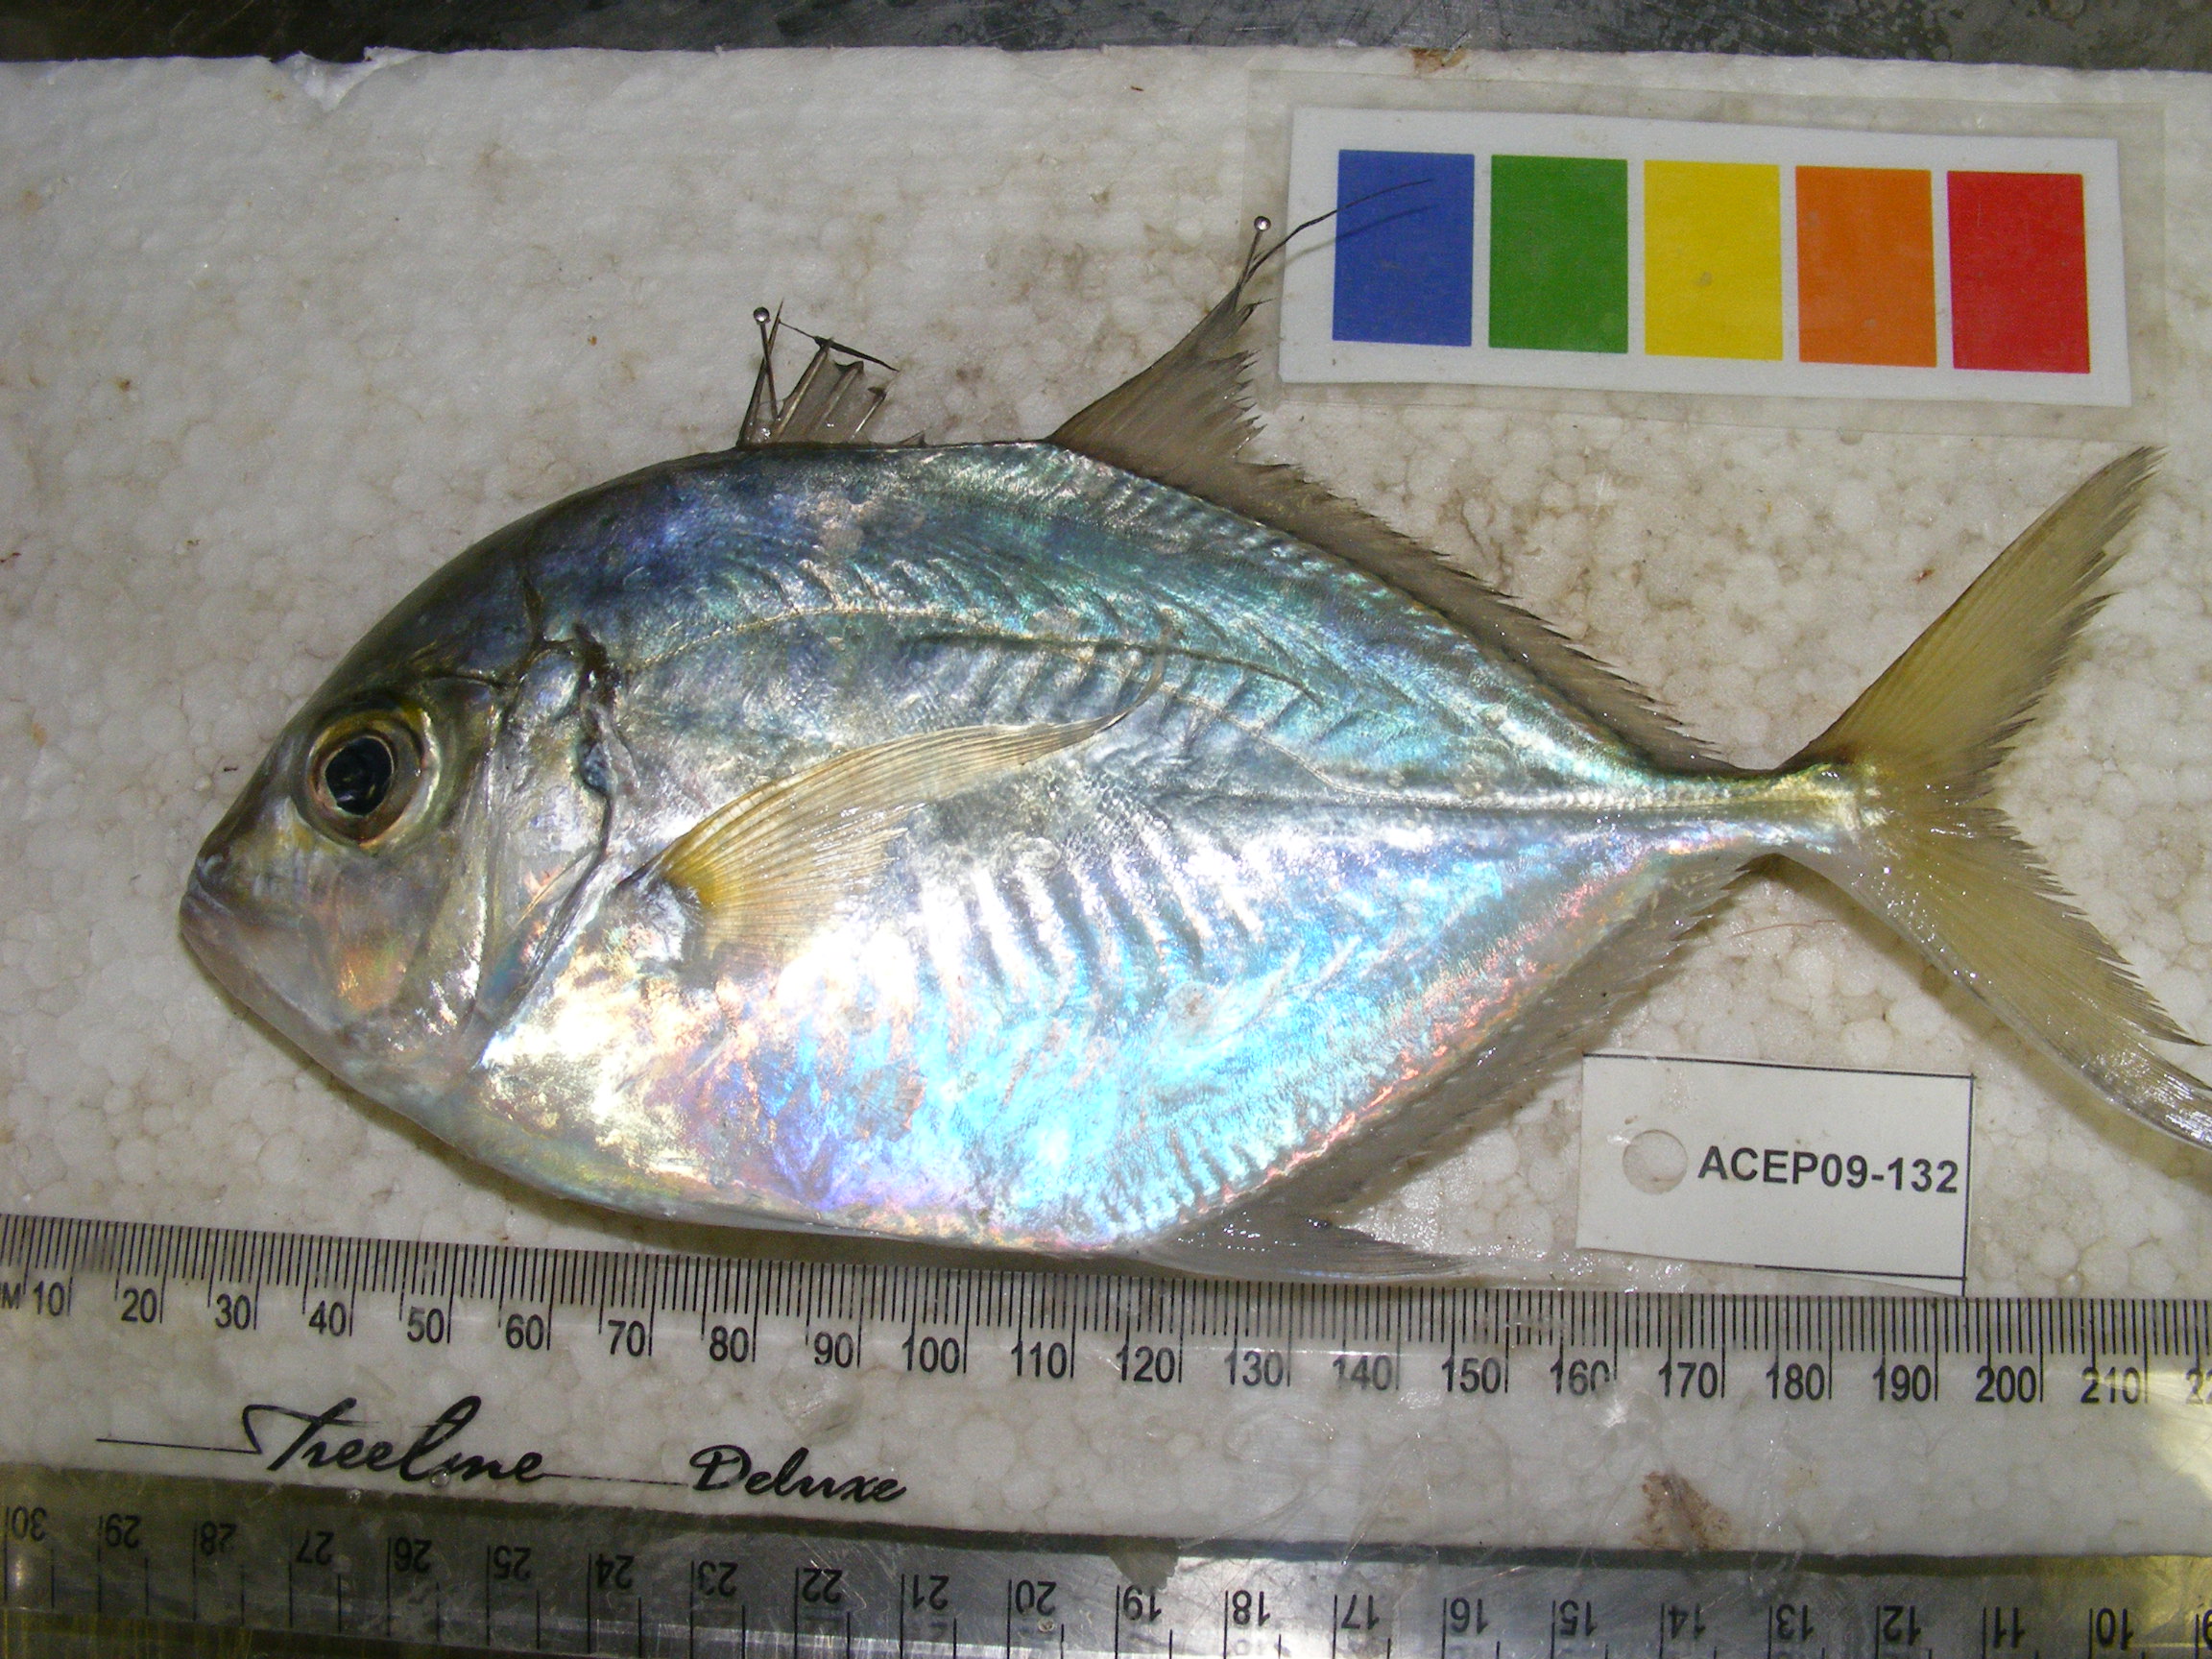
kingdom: Animalia
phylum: Chordata
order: Perciformes
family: Carangidae
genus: Carangoides
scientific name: Carangoides coeruleopinnatus
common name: Coastal trevally
